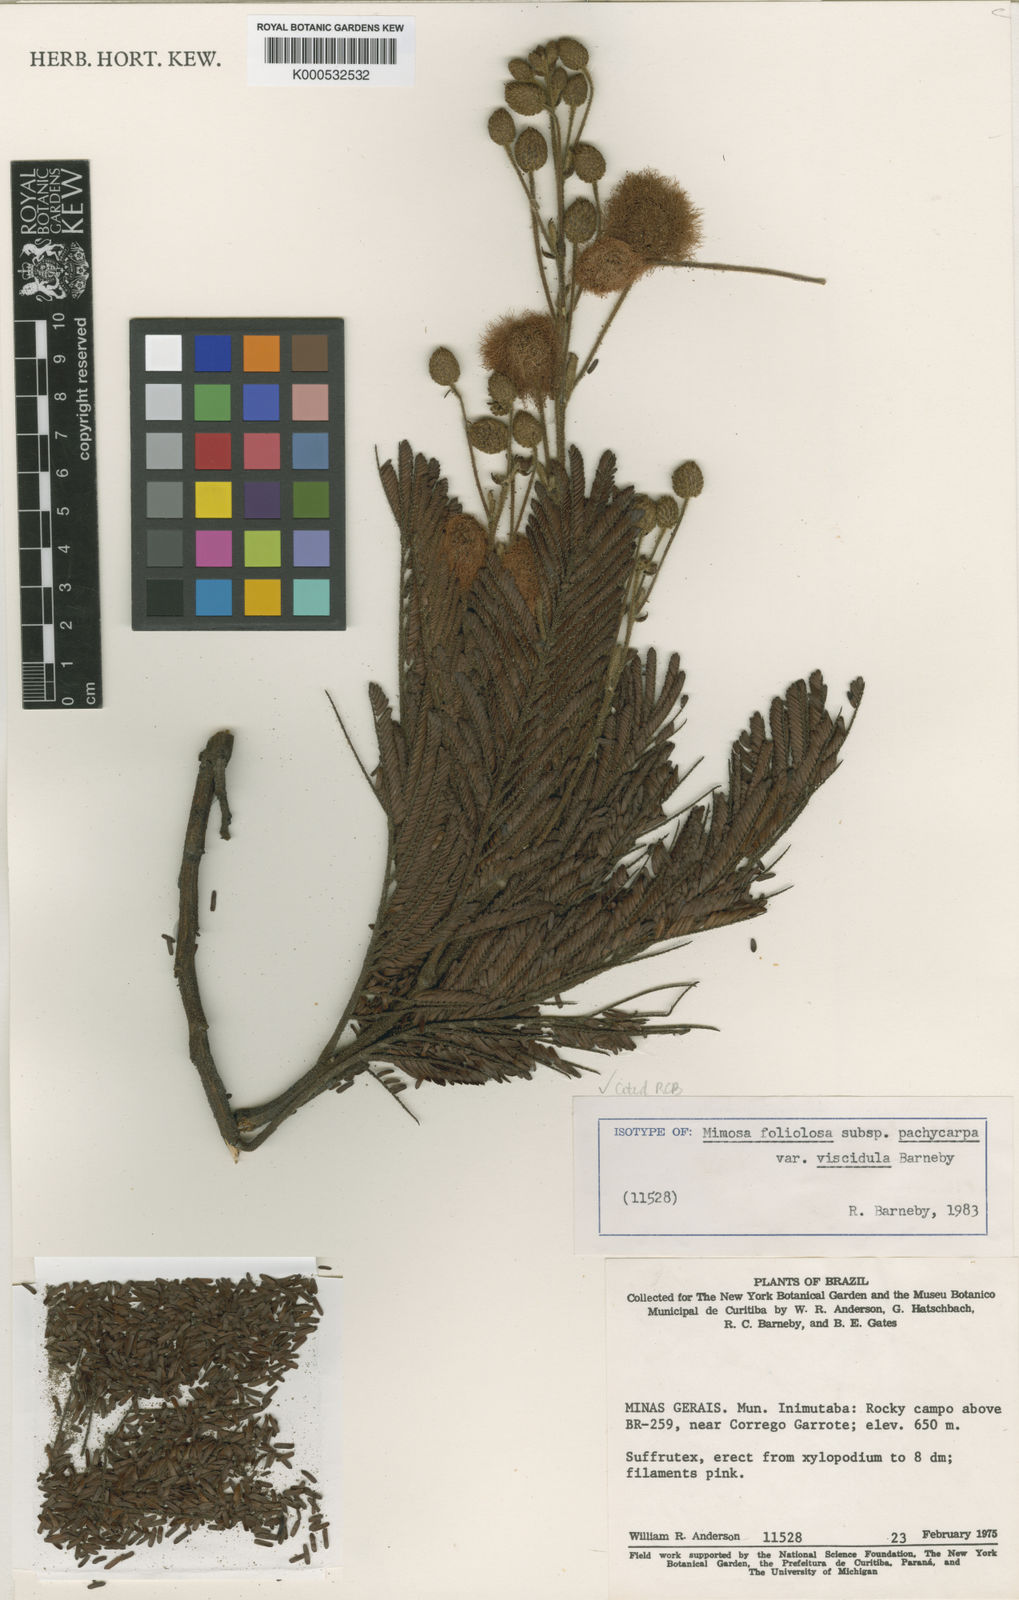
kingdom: Plantae
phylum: Tracheophyta
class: Magnoliopsida
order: Fabales
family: Fabaceae
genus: Mimosa
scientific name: Mimosa foliolosa
